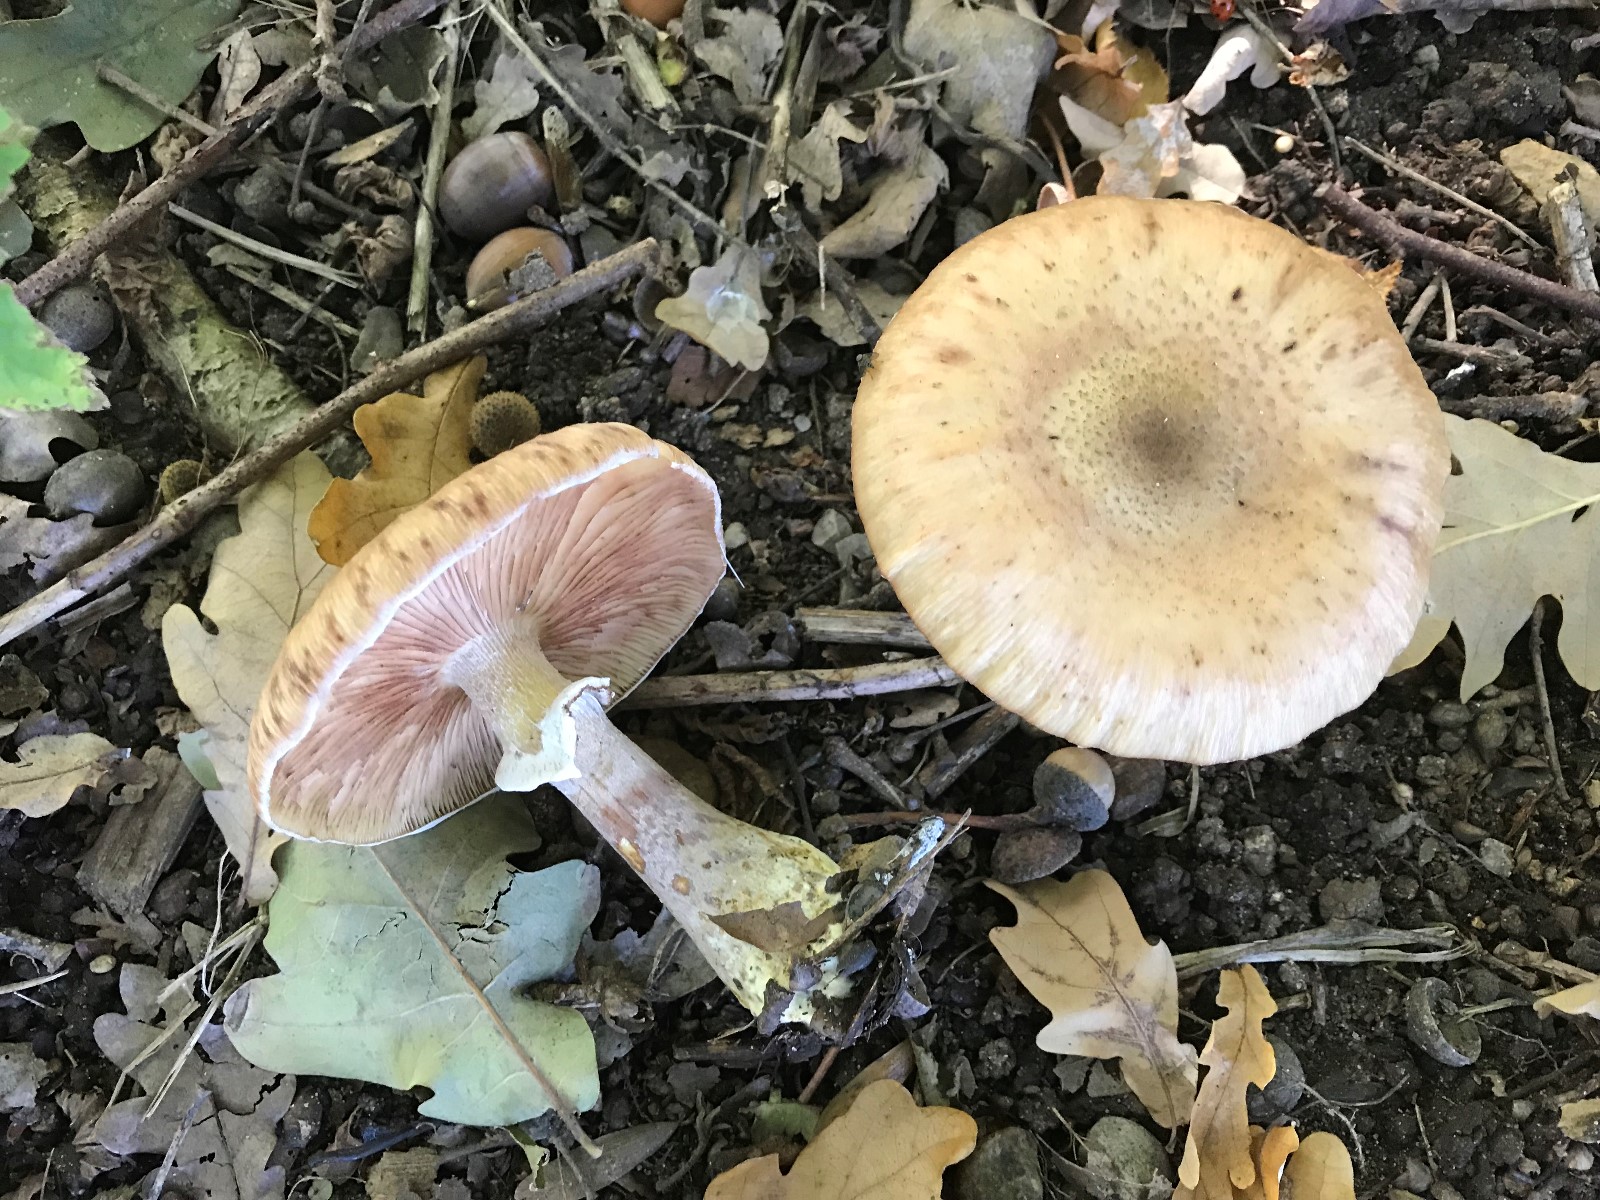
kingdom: Fungi
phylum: Basidiomycota
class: Agaricomycetes
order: Agaricales
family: Physalacriaceae
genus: Armillaria
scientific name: Armillaria lutea
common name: køllestokket honningsvamp
